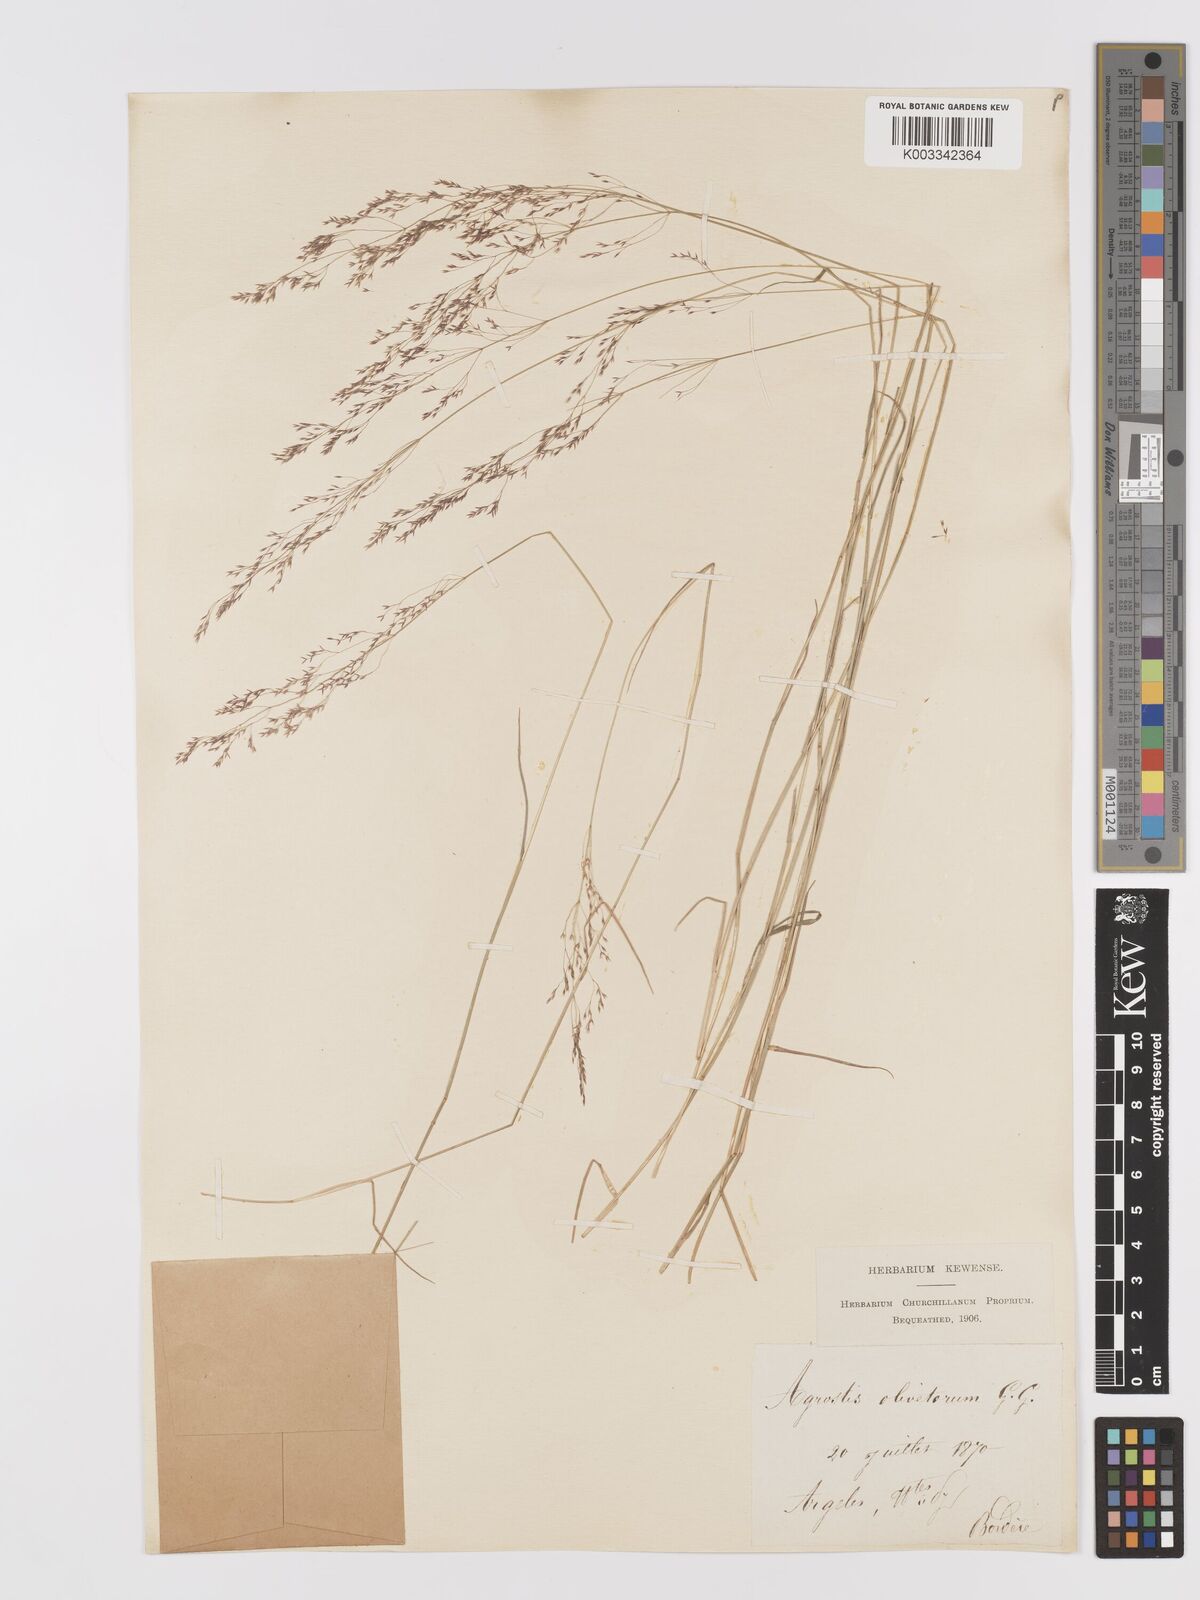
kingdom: Plantae
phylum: Tracheophyta
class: Liliopsida
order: Poales
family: Poaceae
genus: Agrostis
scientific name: Agrostis castellana
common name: Highland bent
